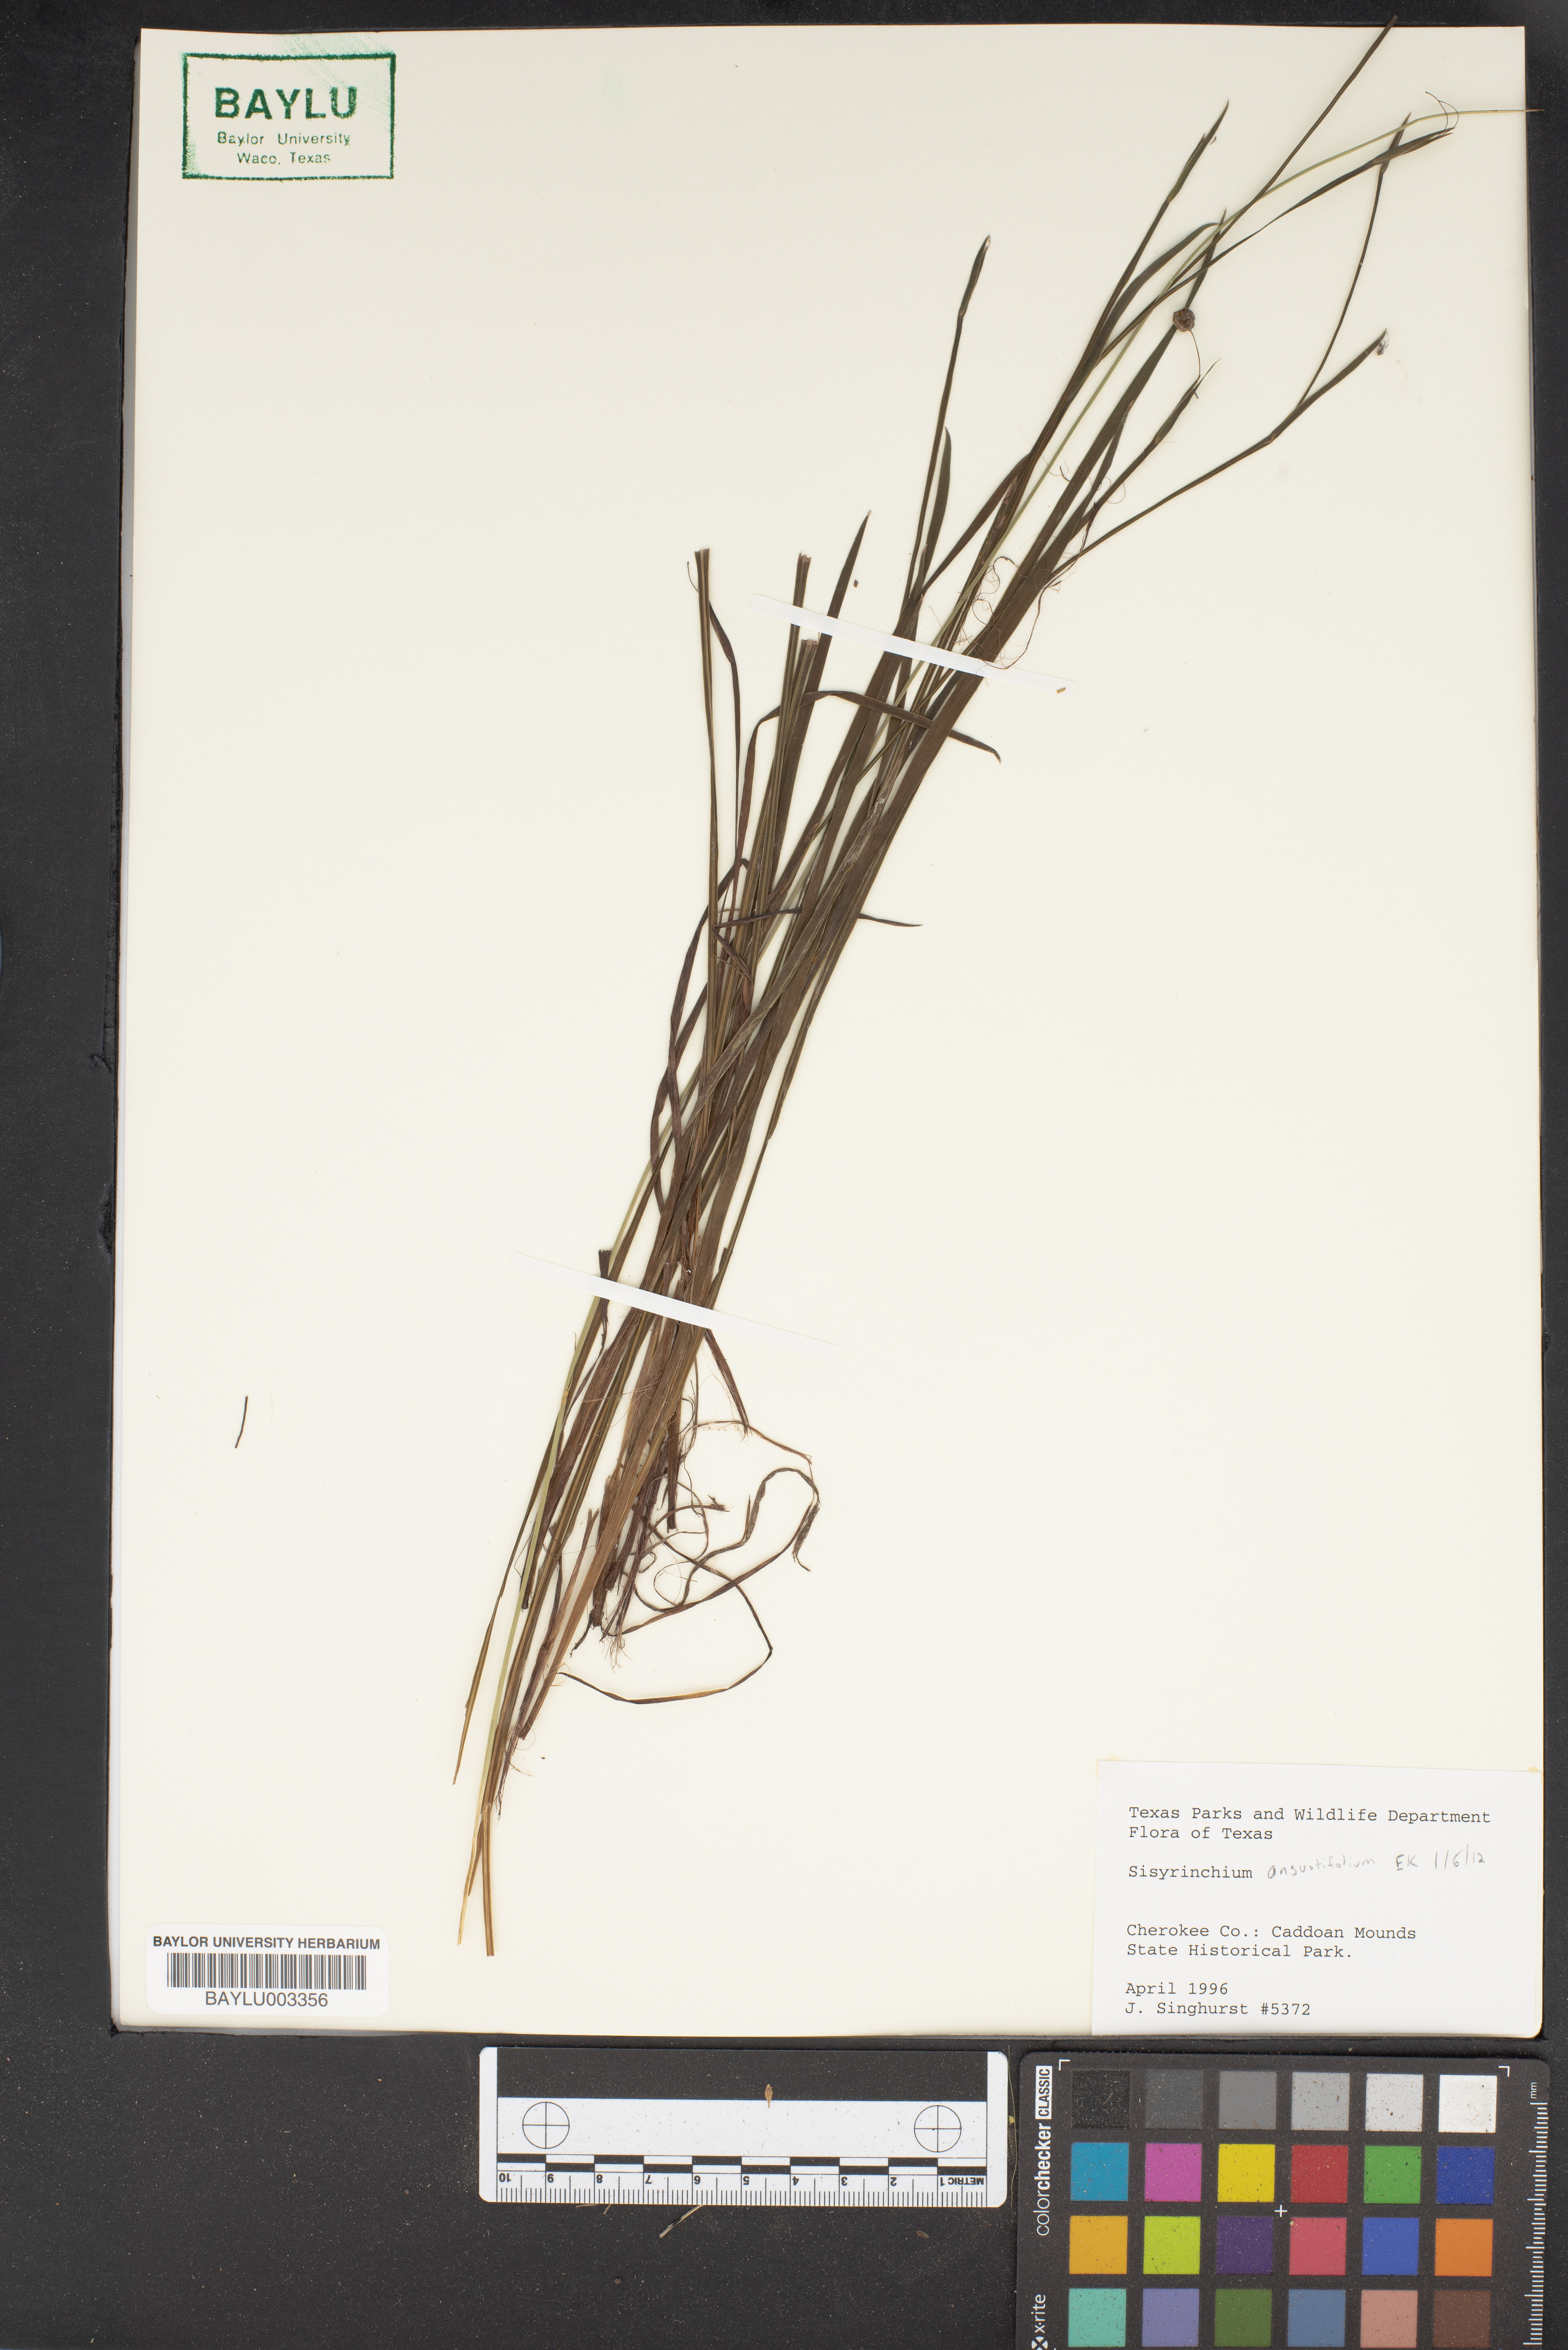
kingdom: Plantae
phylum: Tracheophyta
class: Liliopsida
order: Asparagales
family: Iridaceae
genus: Sisyrinchium
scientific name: Sisyrinchium angustifolium
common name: Narrow-leaf blue-eyed-grass
